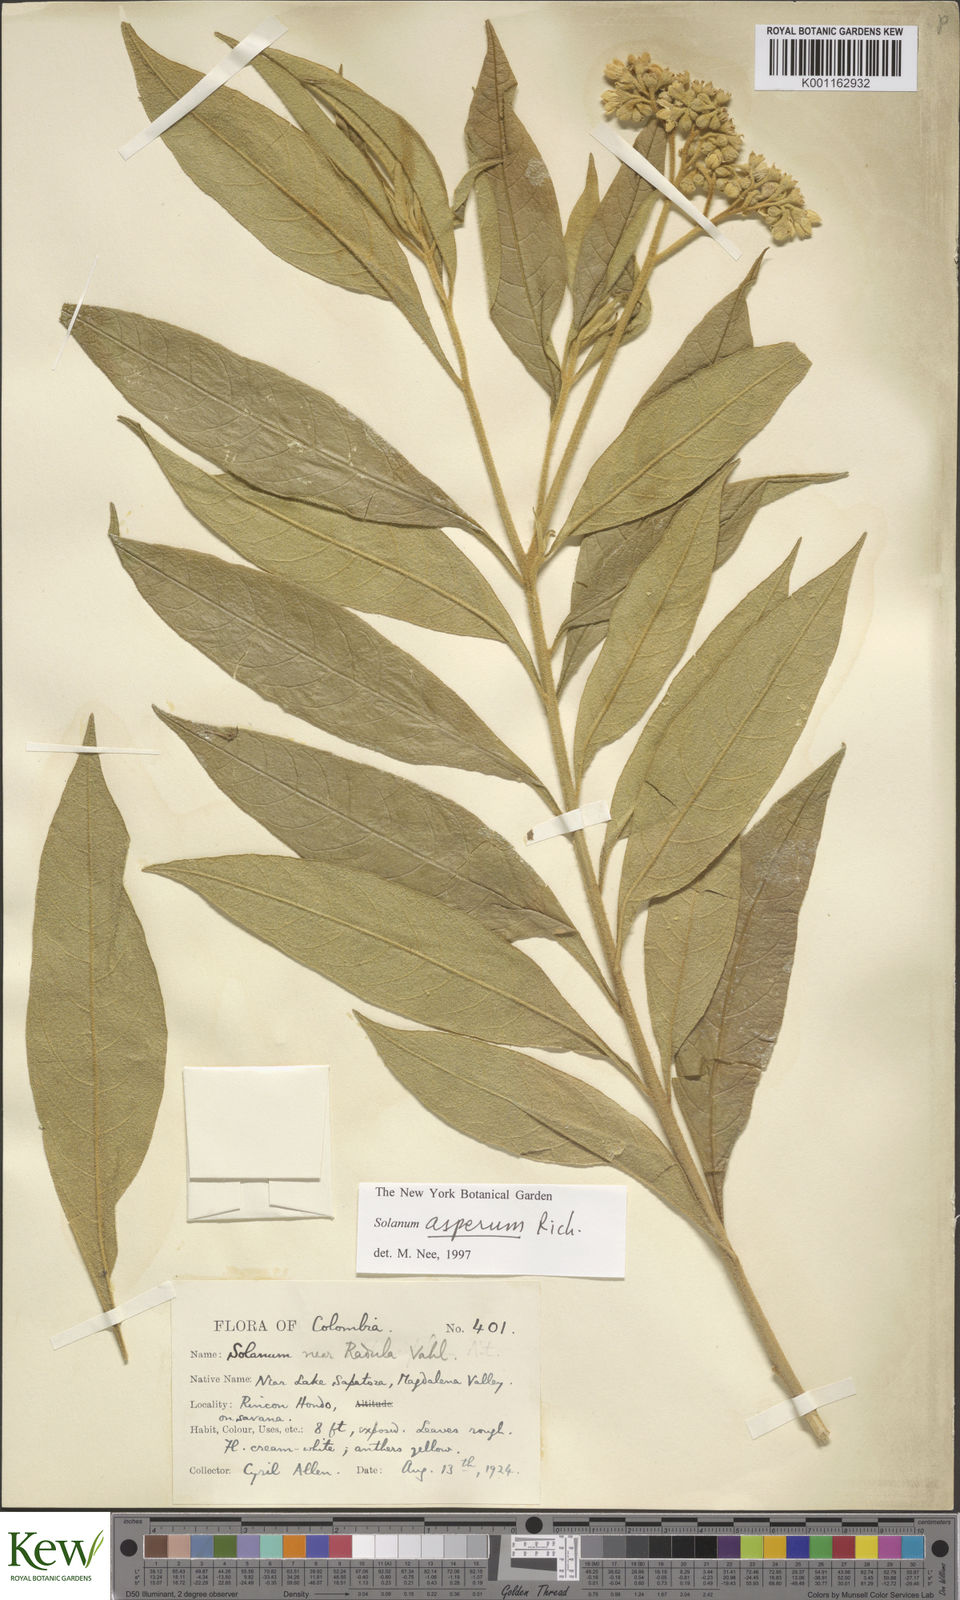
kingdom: Plantae
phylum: Tracheophyta
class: Magnoliopsida
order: Solanales
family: Solanaceae
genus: Solanum
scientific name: Solanum asperum
